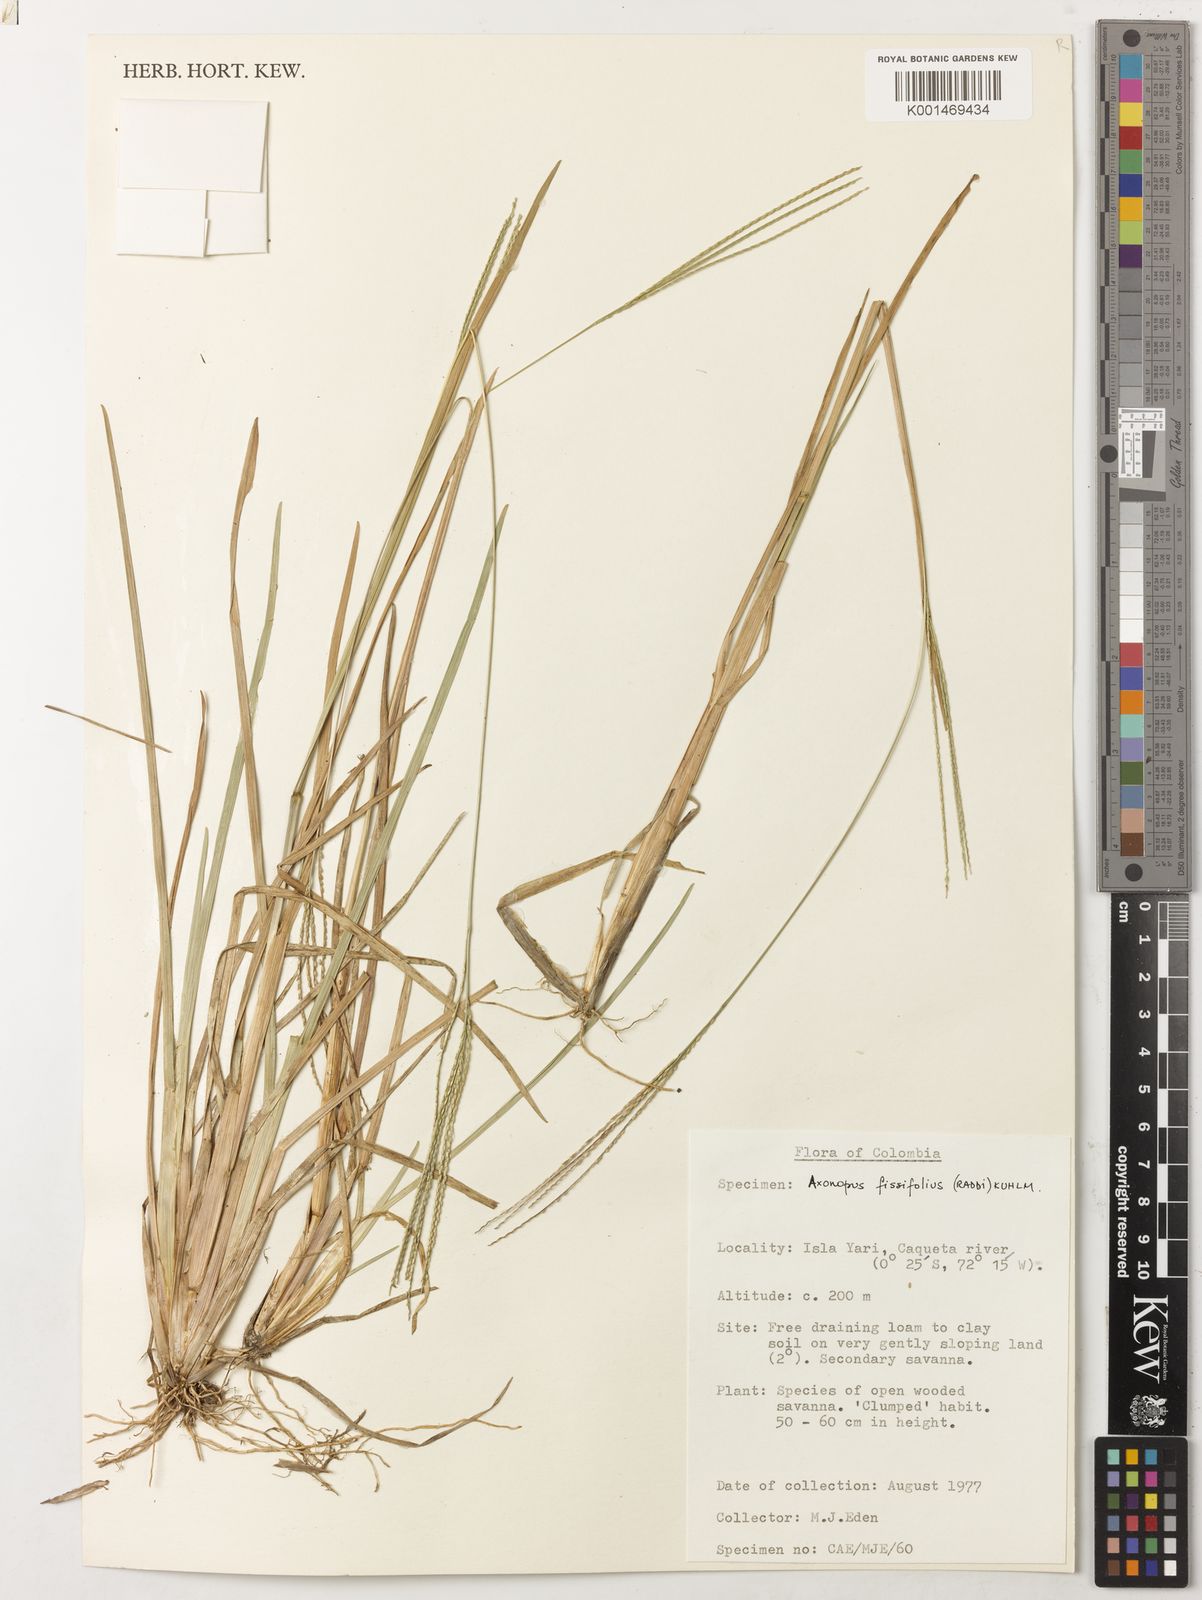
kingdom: Plantae
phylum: Tracheophyta
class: Liliopsida
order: Poales
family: Poaceae
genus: Axonopus
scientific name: Axonopus fissifolius
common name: Common carpetgrass
